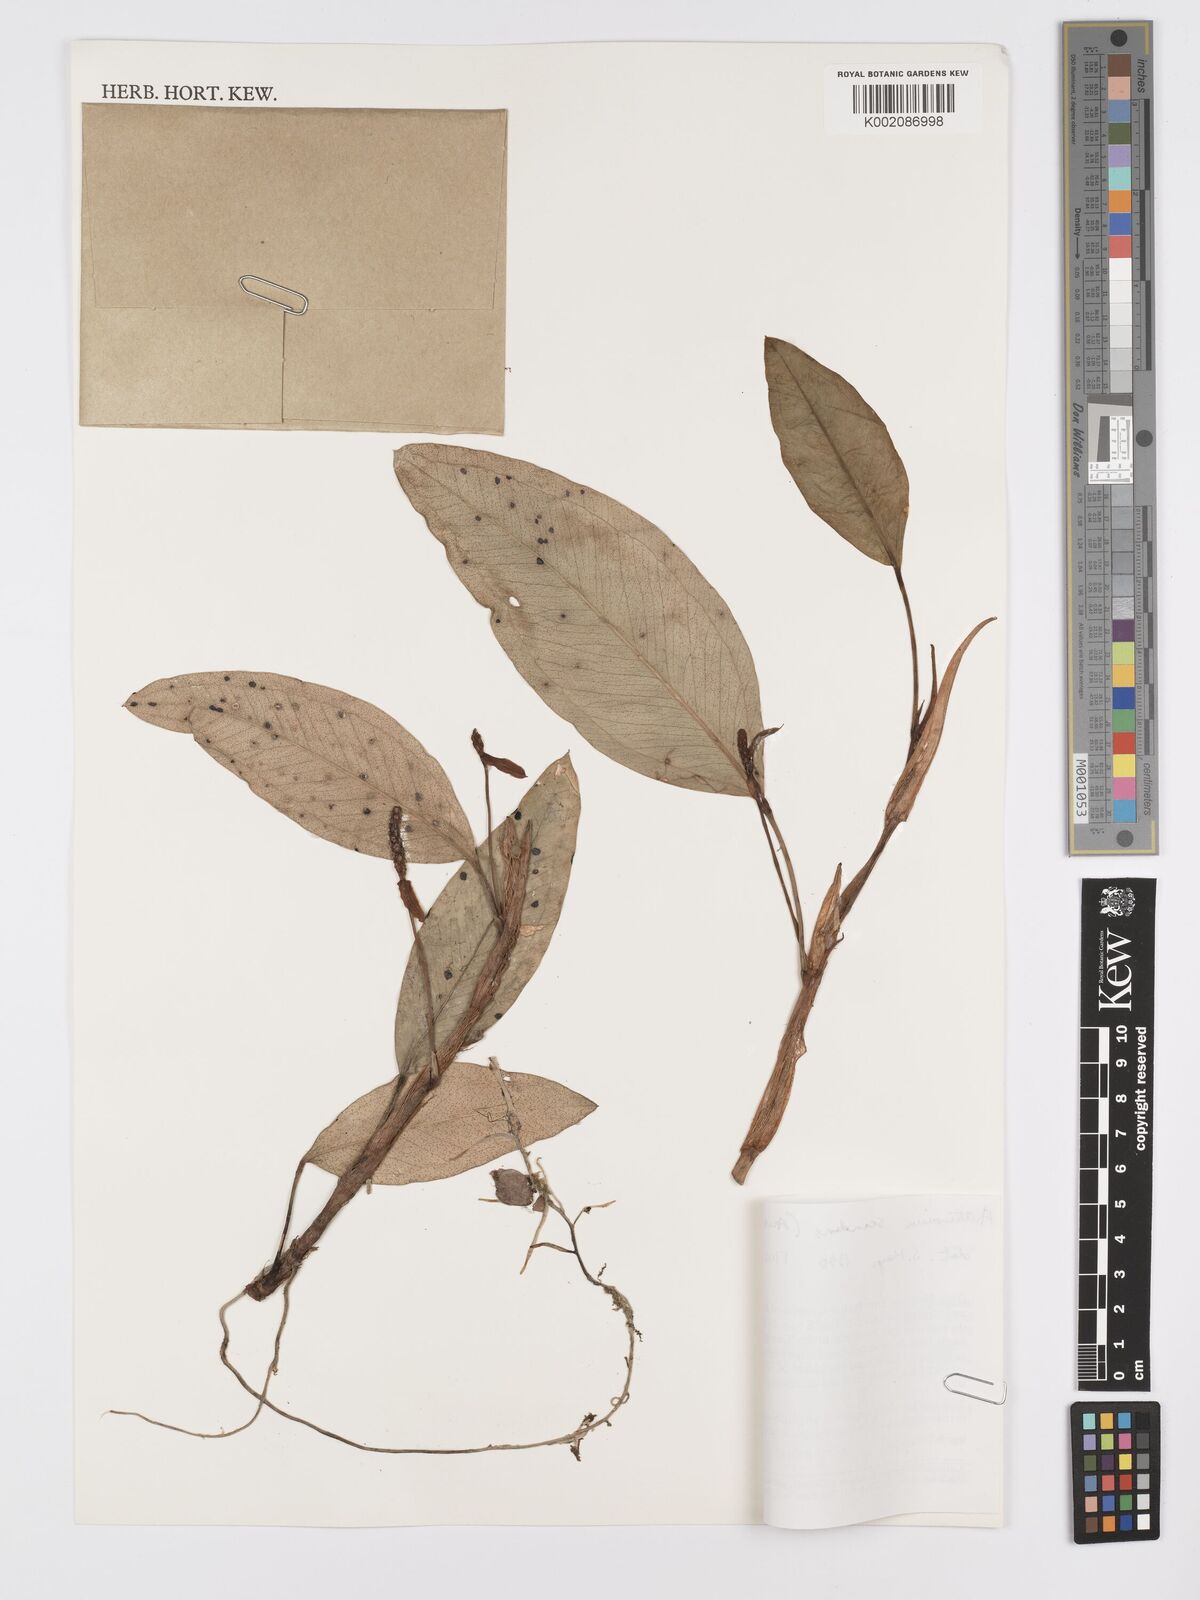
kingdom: Plantae
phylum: Tracheophyta
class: Liliopsida
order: Alismatales
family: Araceae
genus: Anthurium
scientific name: Anthurium scandens
